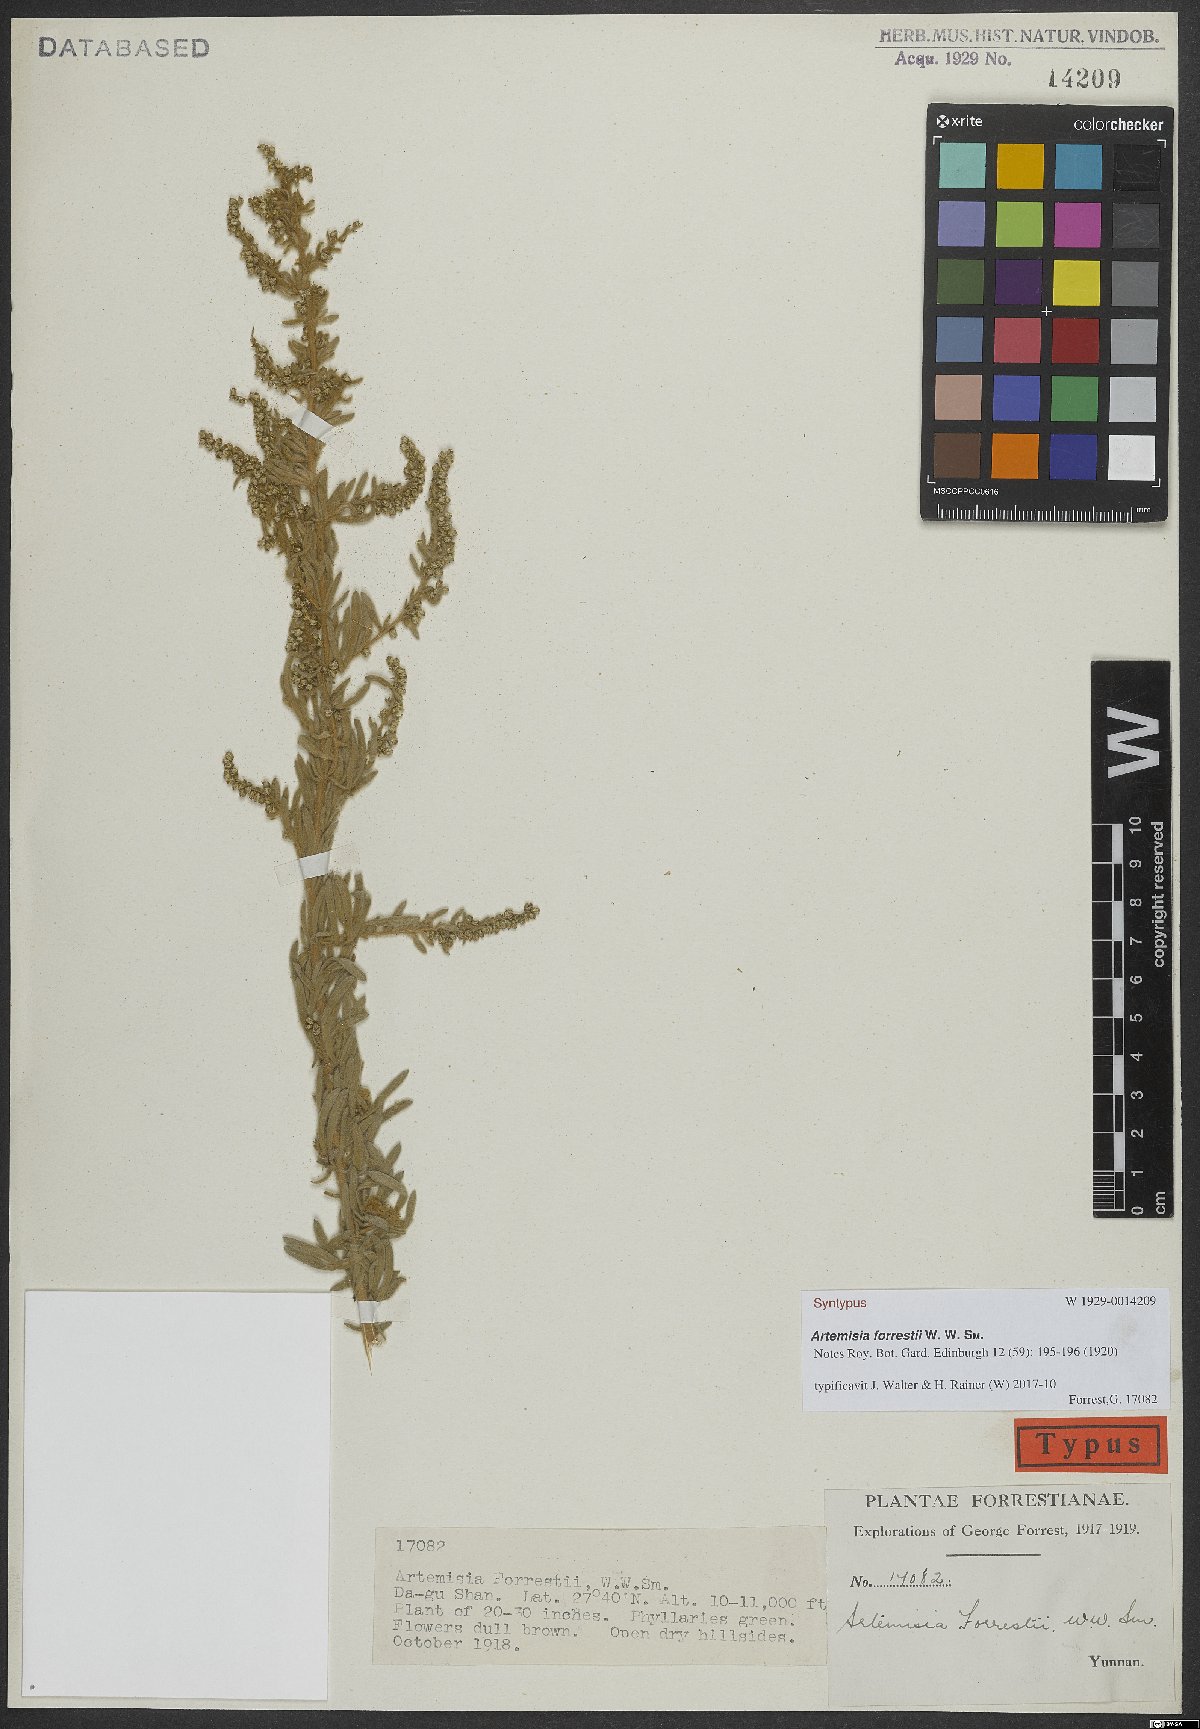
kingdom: Plantae
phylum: Tracheophyta
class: Magnoliopsida
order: Asterales
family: Asteraceae
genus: Artemisia
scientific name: Artemisia forrestii
